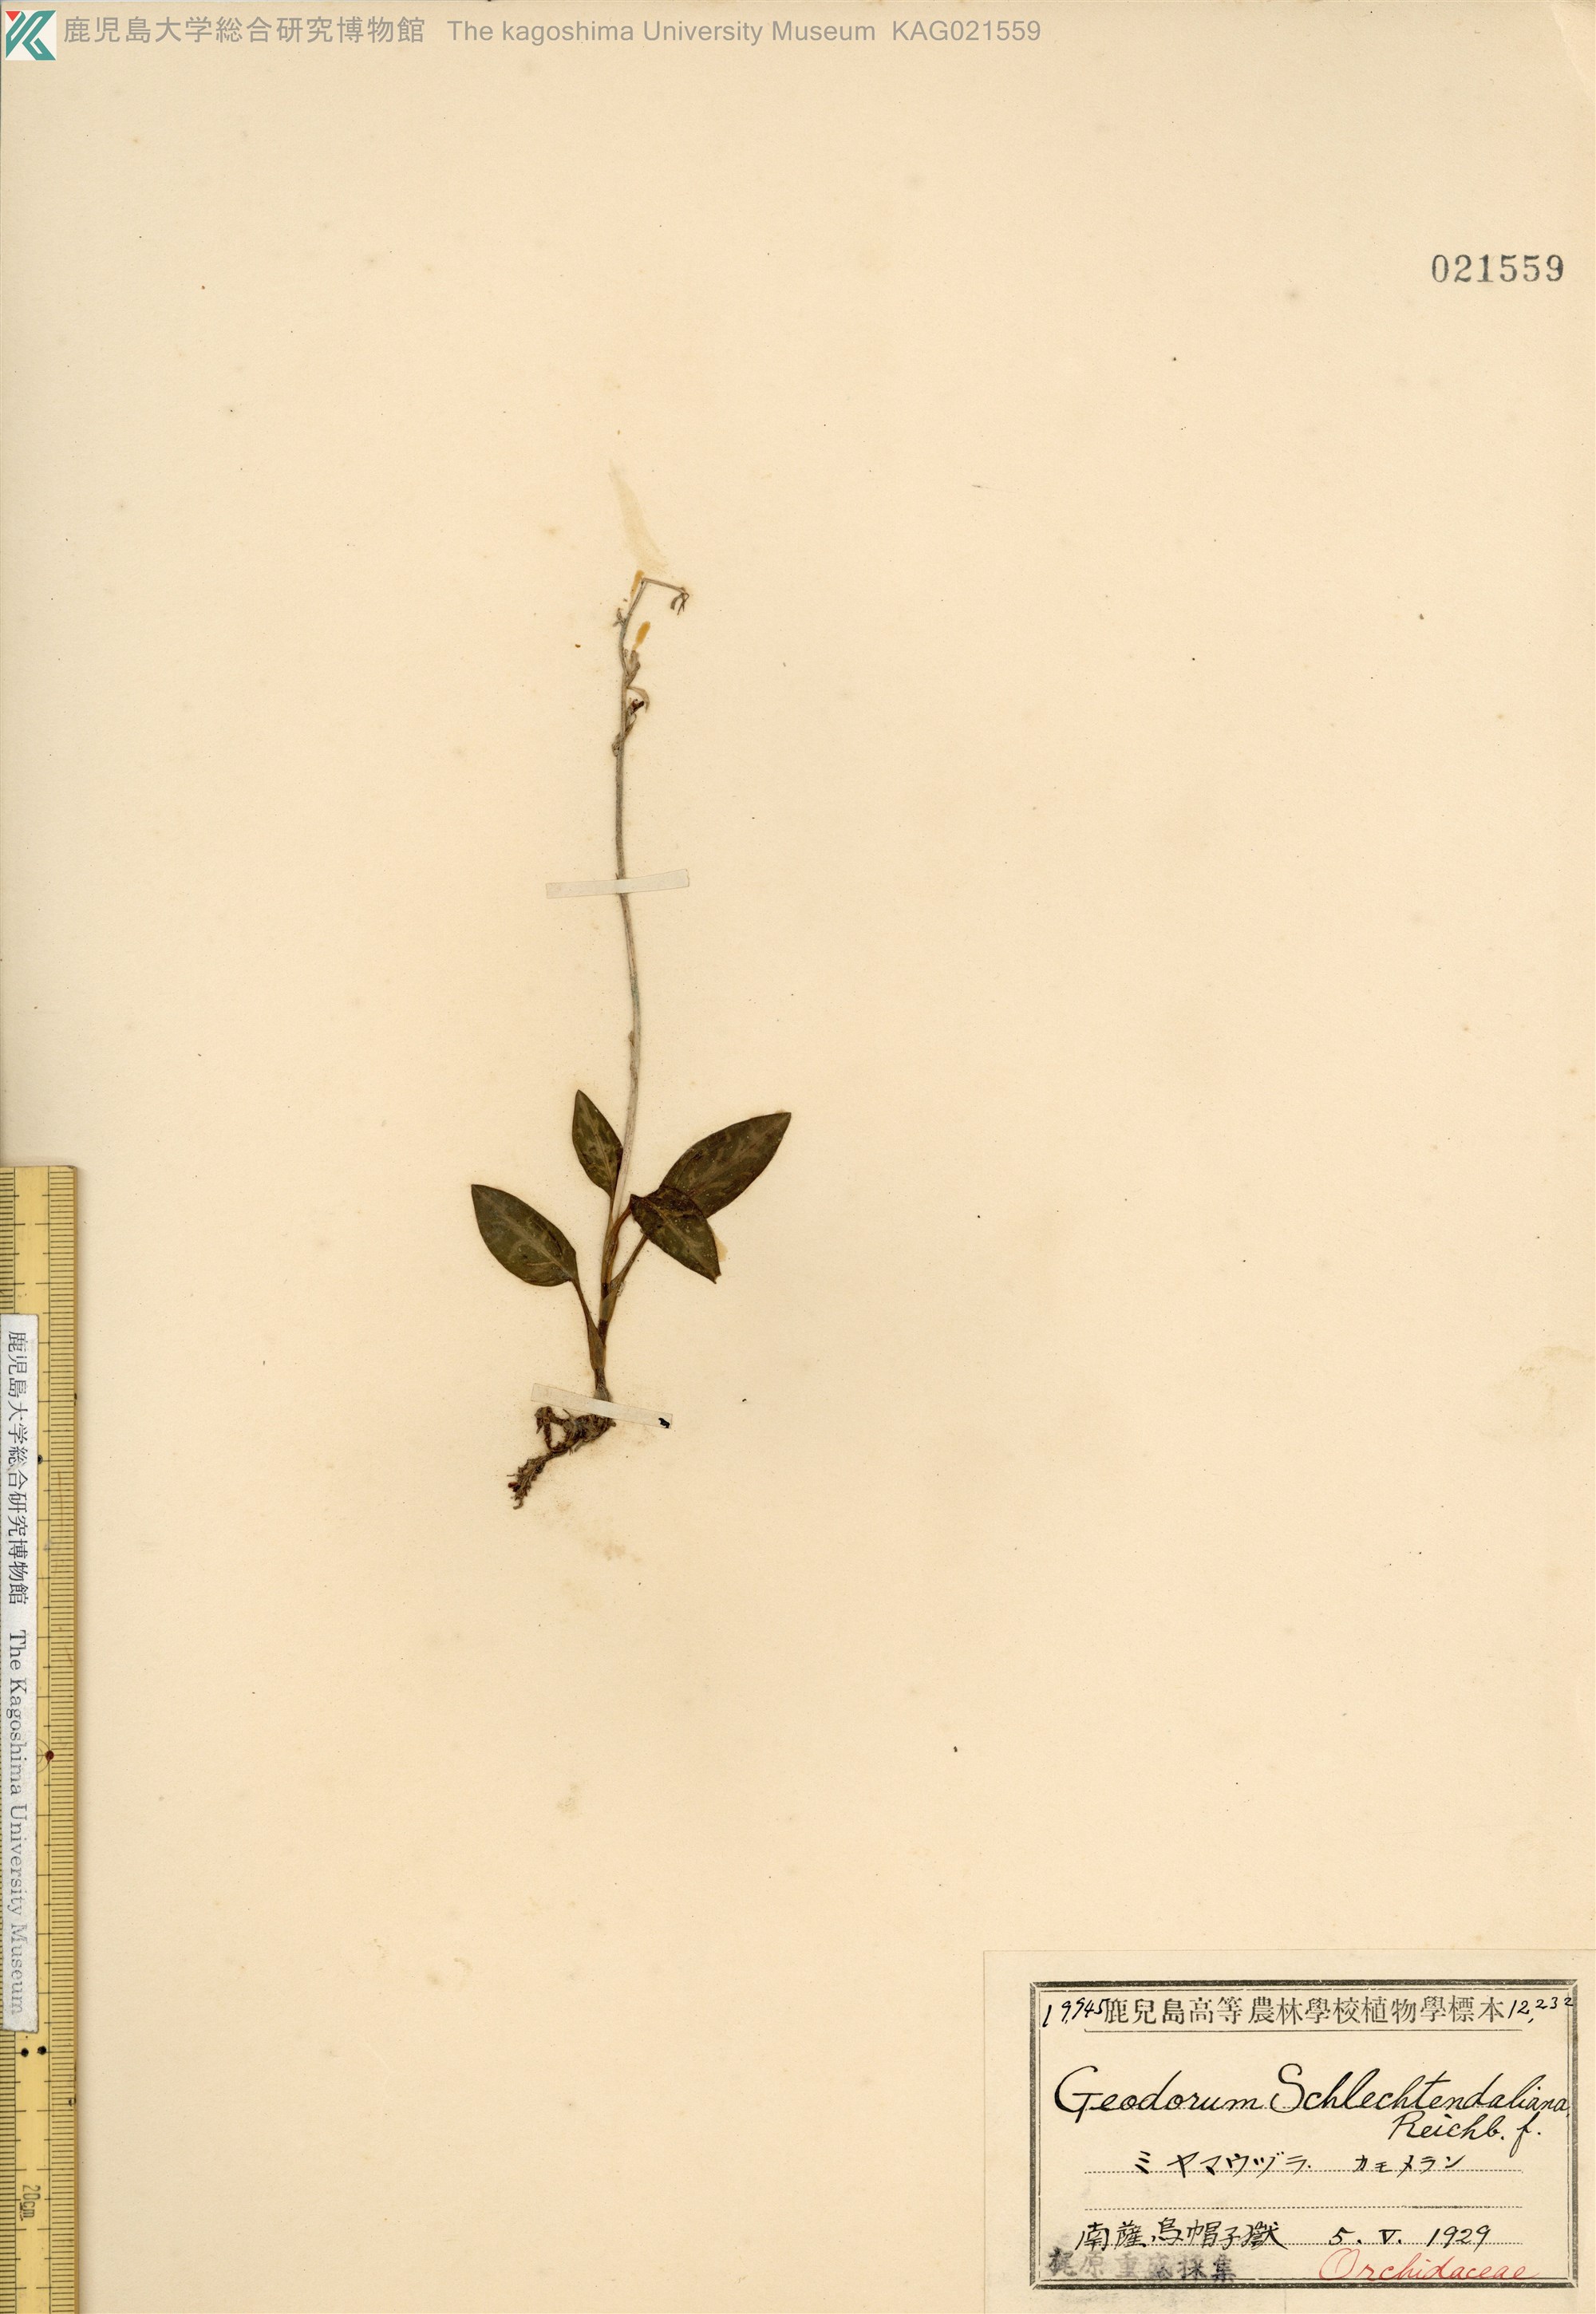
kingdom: Plantae
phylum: Tracheophyta
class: Liliopsida
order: Asparagales
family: Orchidaceae
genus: Goodyera
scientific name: Goodyera schlechtendaliana
